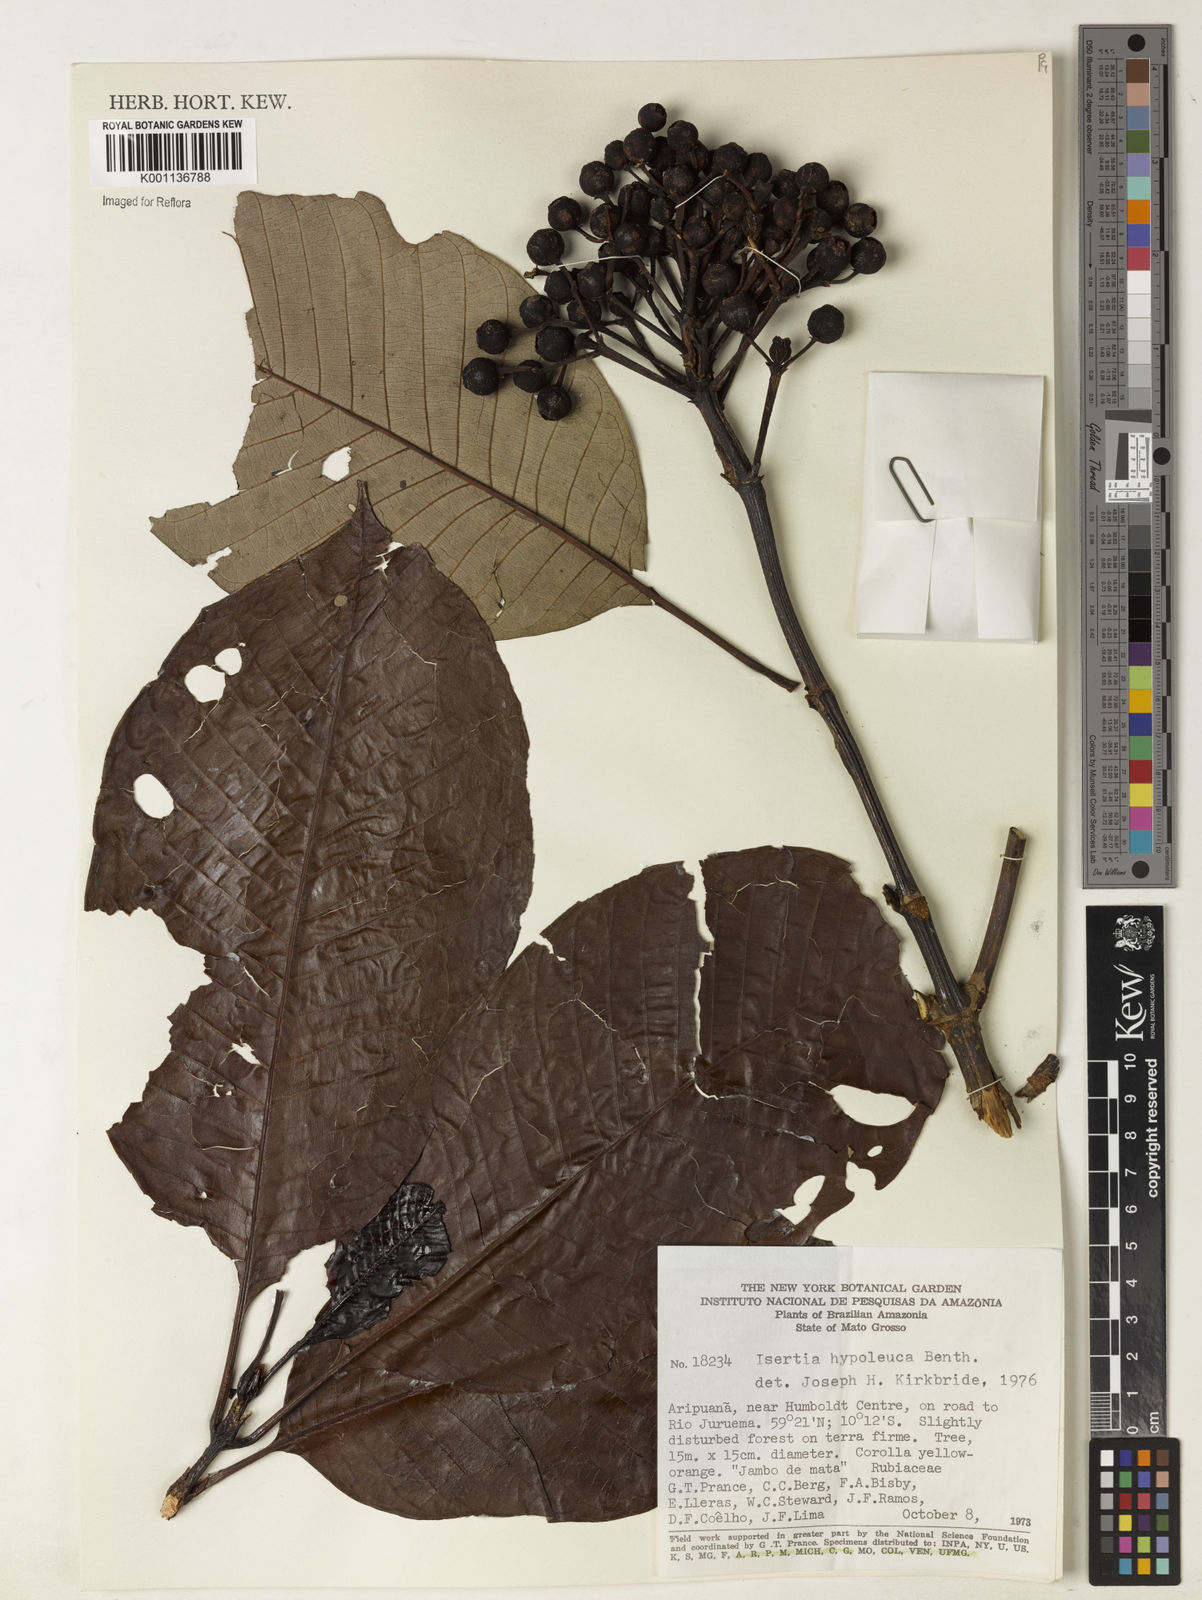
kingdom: Plantae
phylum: Tracheophyta
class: Magnoliopsida
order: Gentianales
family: Rubiaceae
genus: Isertia
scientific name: Isertia hypoleuca
